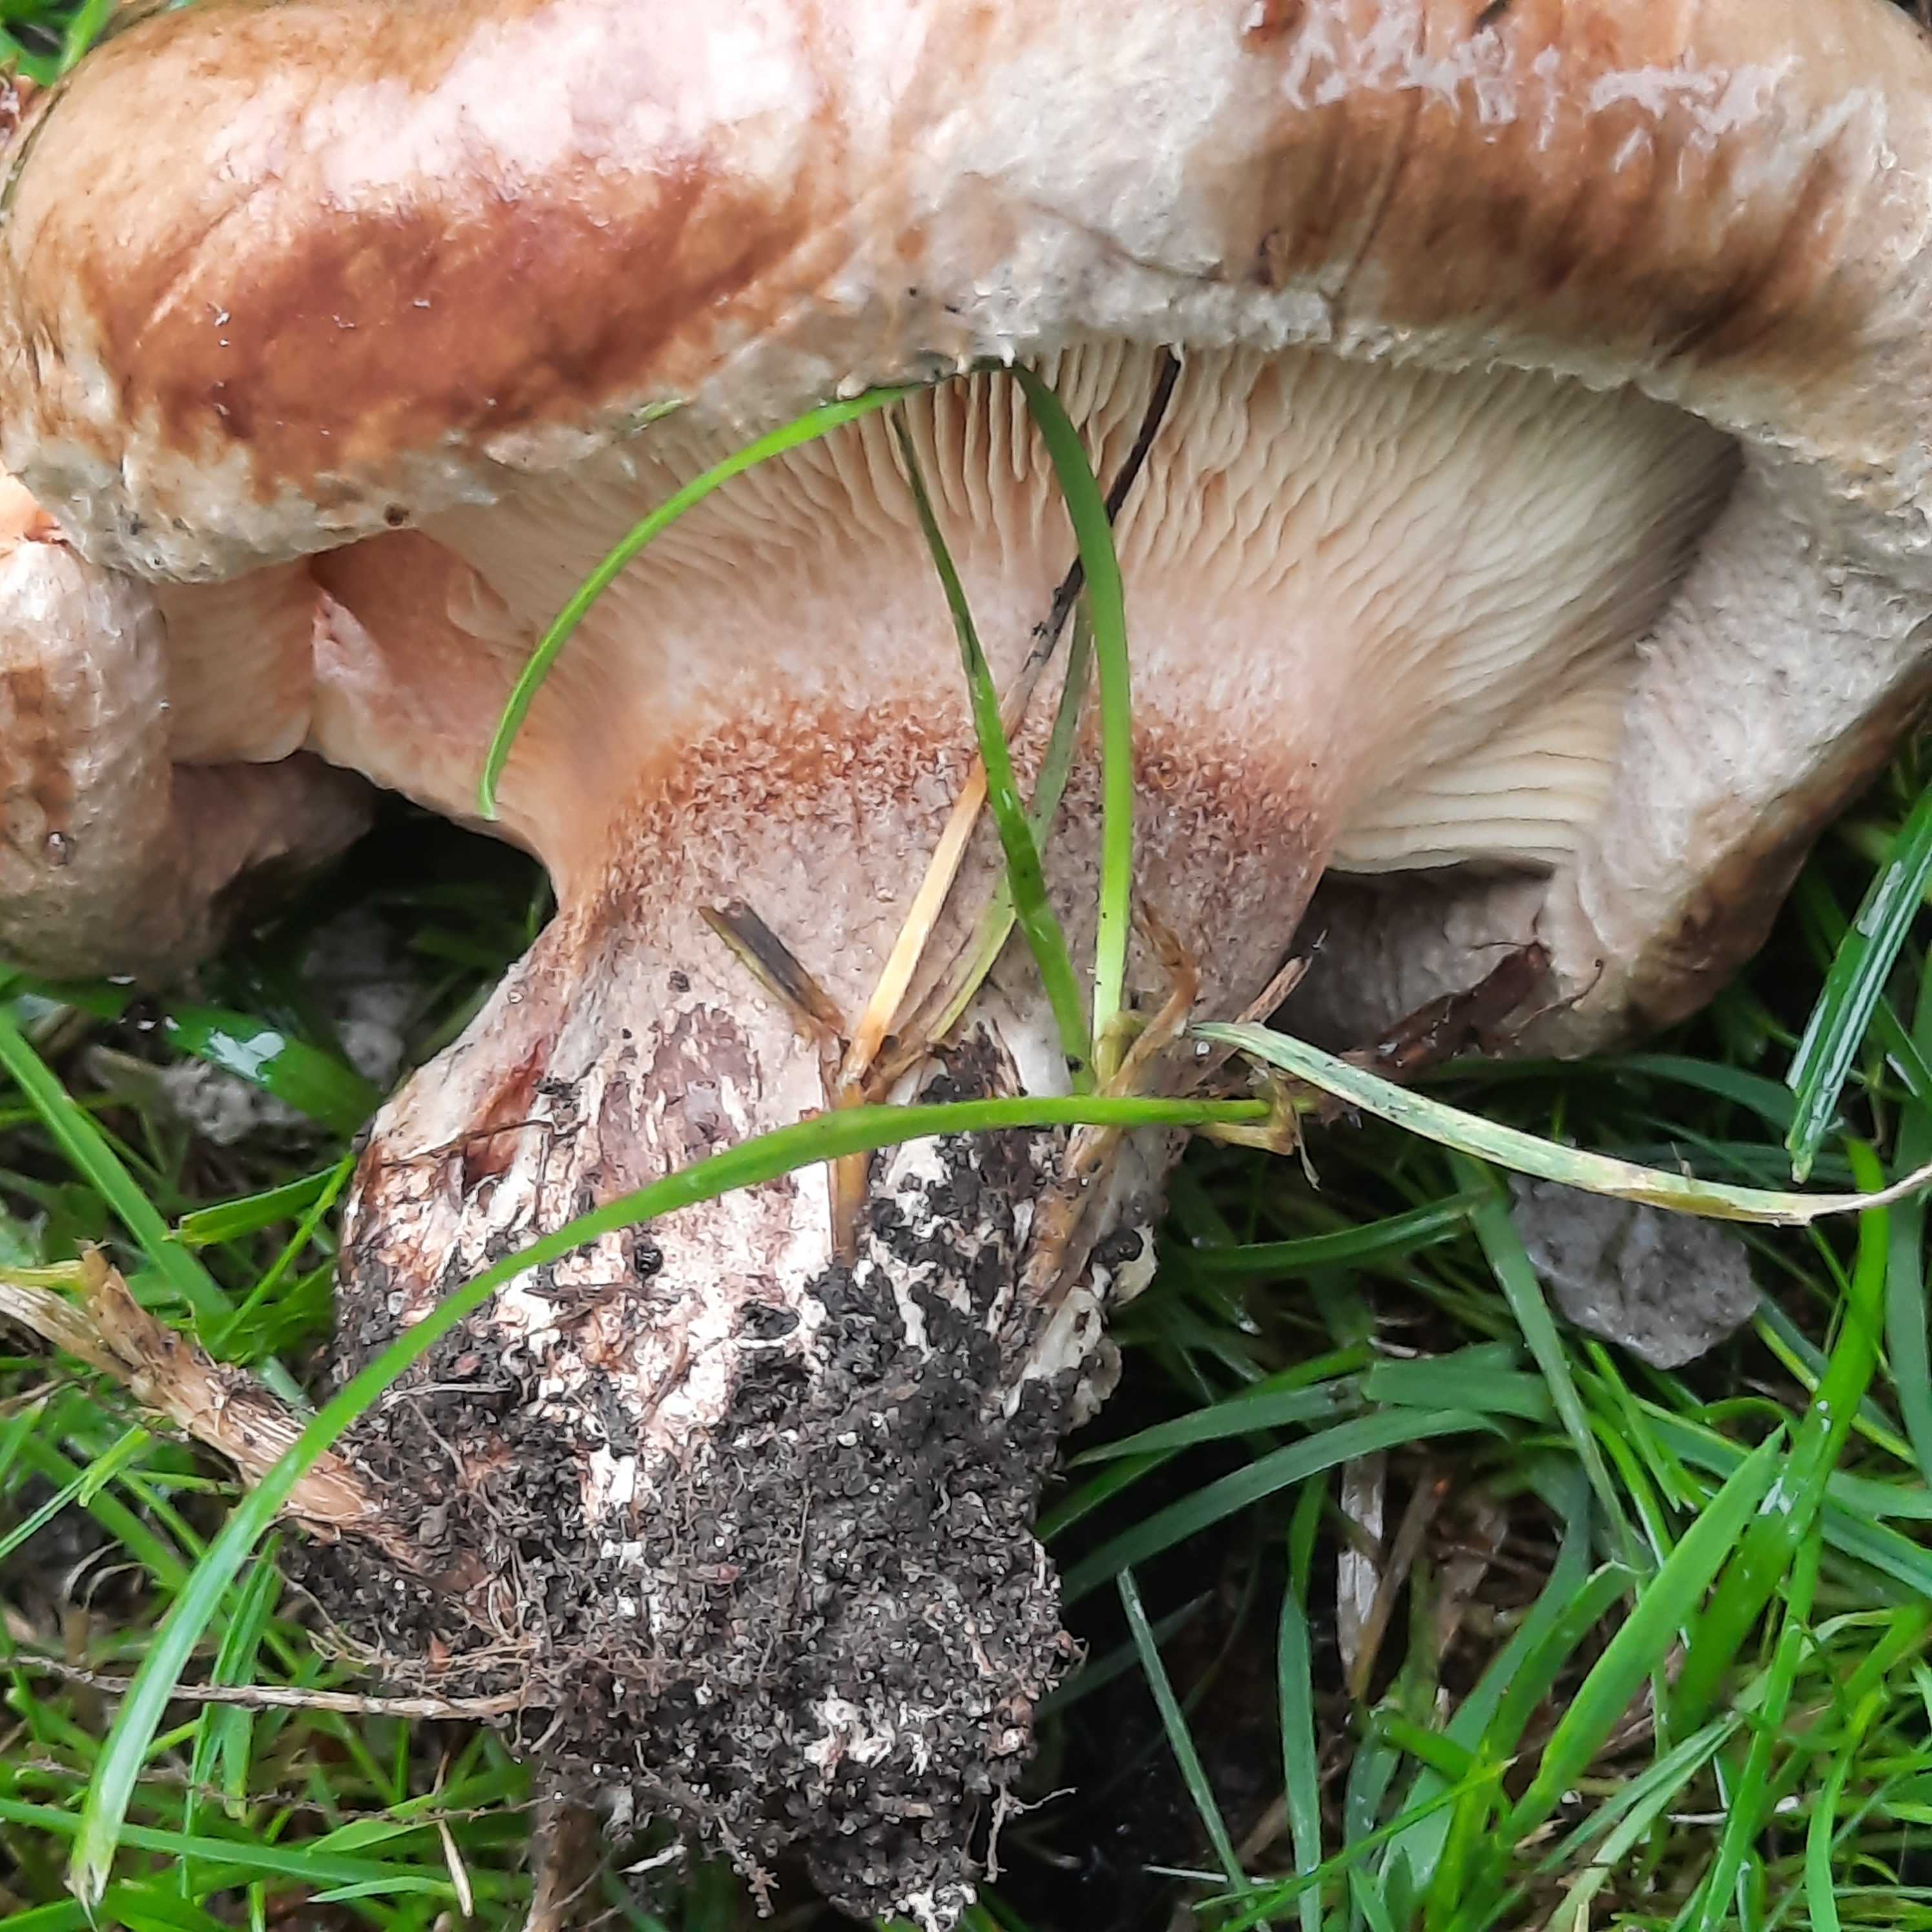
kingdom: Fungi
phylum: Basidiomycota
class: Agaricomycetes
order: Boletales
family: Paxillaceae
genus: Paxillus
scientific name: Paxillus
